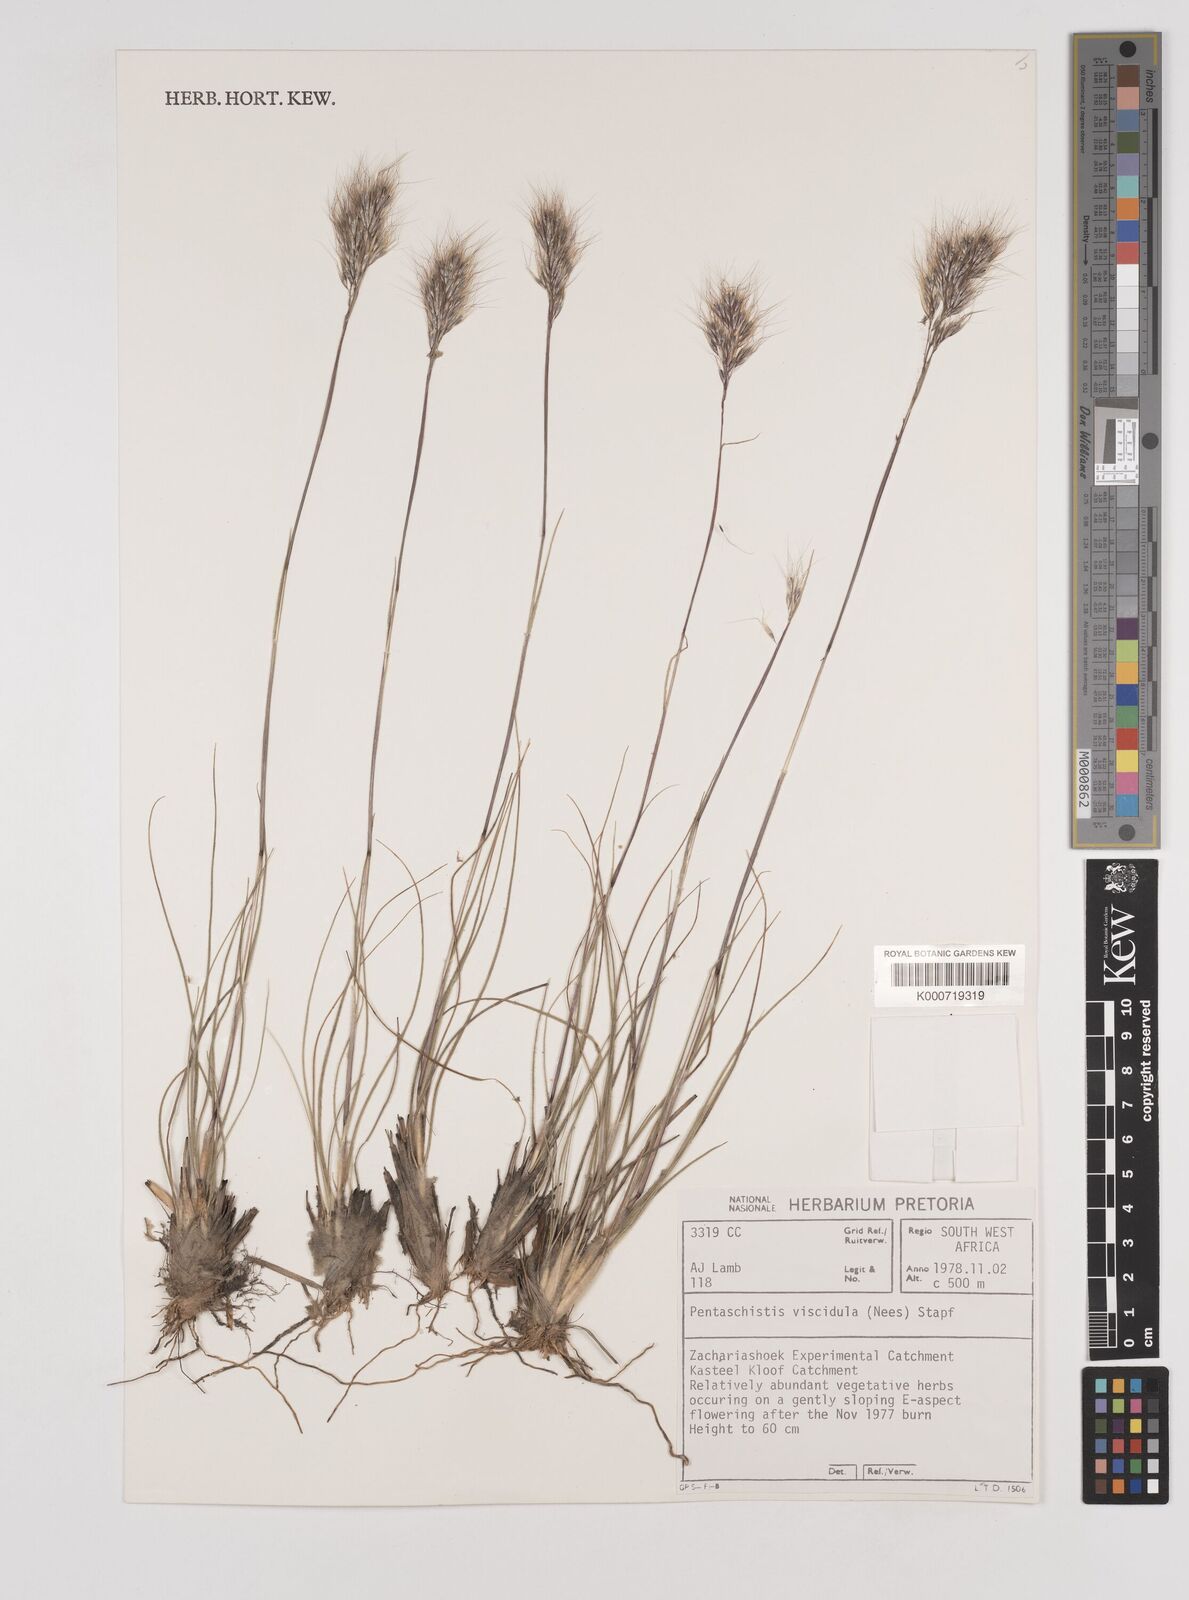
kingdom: Plantae
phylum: Tracheophyta
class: Liliopsida
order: Poales
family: Poaceae
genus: Pentameris
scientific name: Pentameris viscidula
